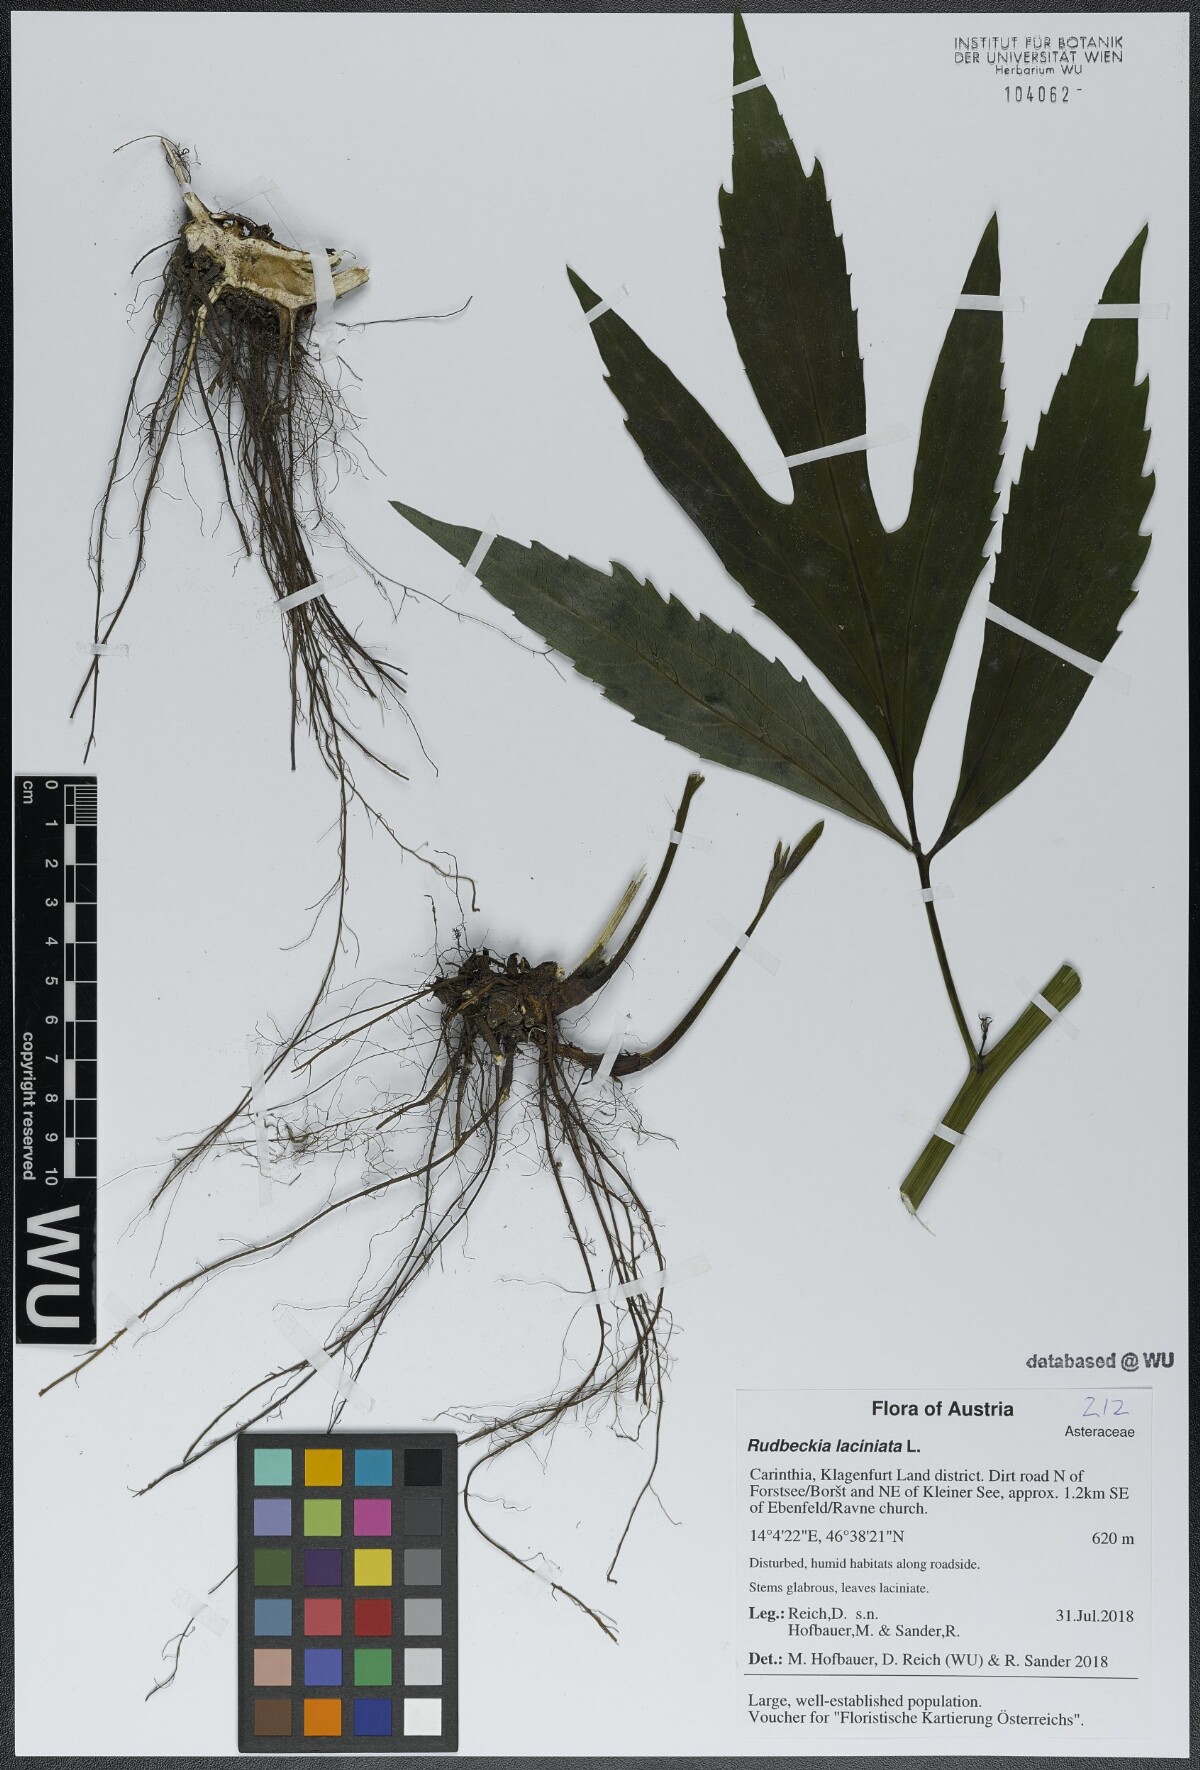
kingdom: Plantae
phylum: Tracheophyta
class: Magnoliopsida
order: Asterales
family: Asteraceae
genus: Rudbeckia
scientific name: Rudbeckia laciniata
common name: Coneflower
